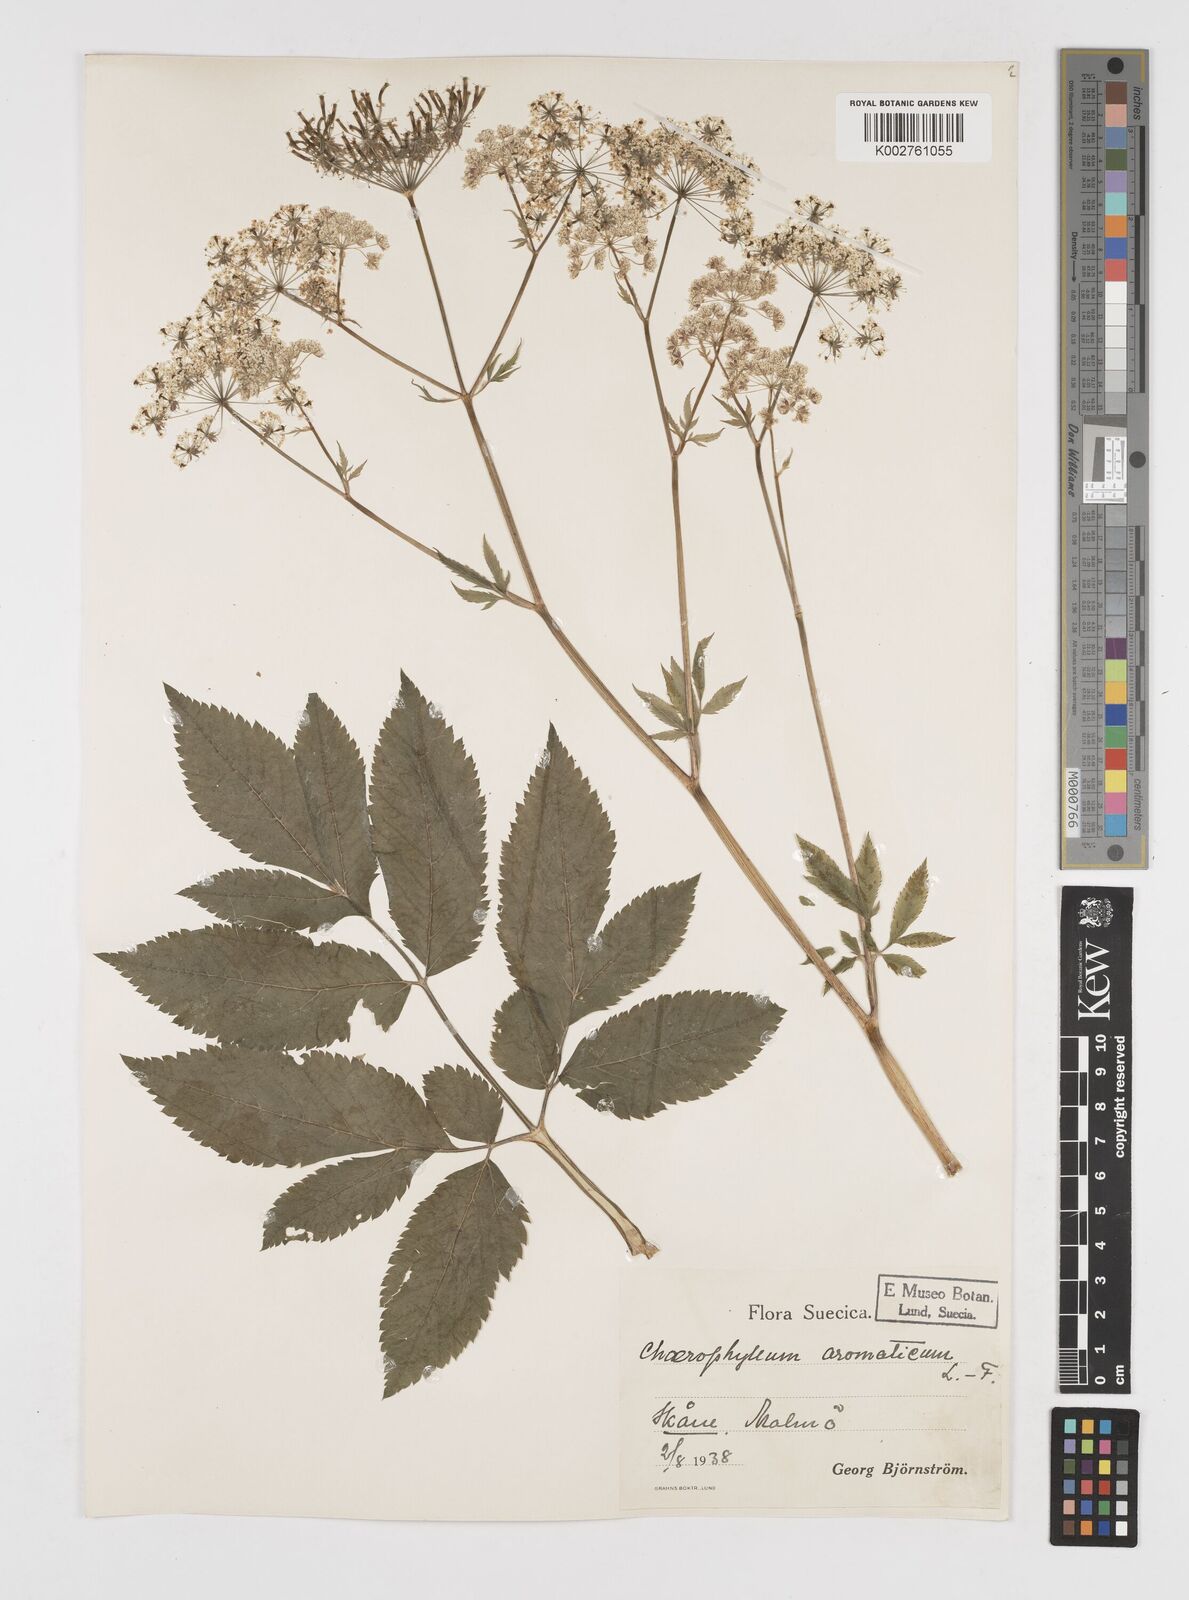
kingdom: Plantae
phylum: Tracheophyta
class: Magnoliopsida
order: Apiales
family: Apiaceae
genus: Chaerophyllum
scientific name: Chaerophyllum aromaticum
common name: Broadleaf chervil
